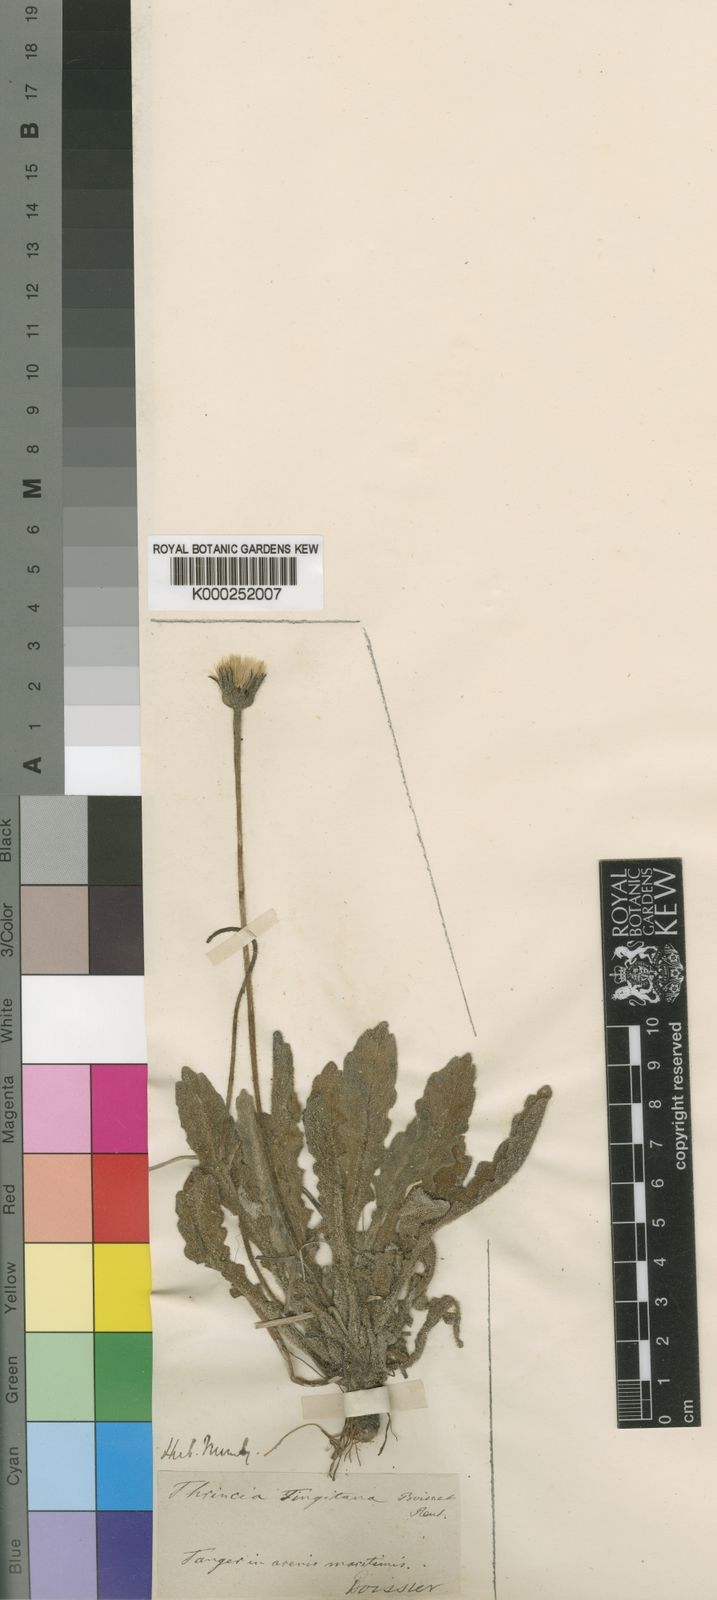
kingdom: Plantae
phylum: Tracheophyta
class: Magnoliopsida
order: Asterales
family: Asteraceae
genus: Leontodon
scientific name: Leontodon
